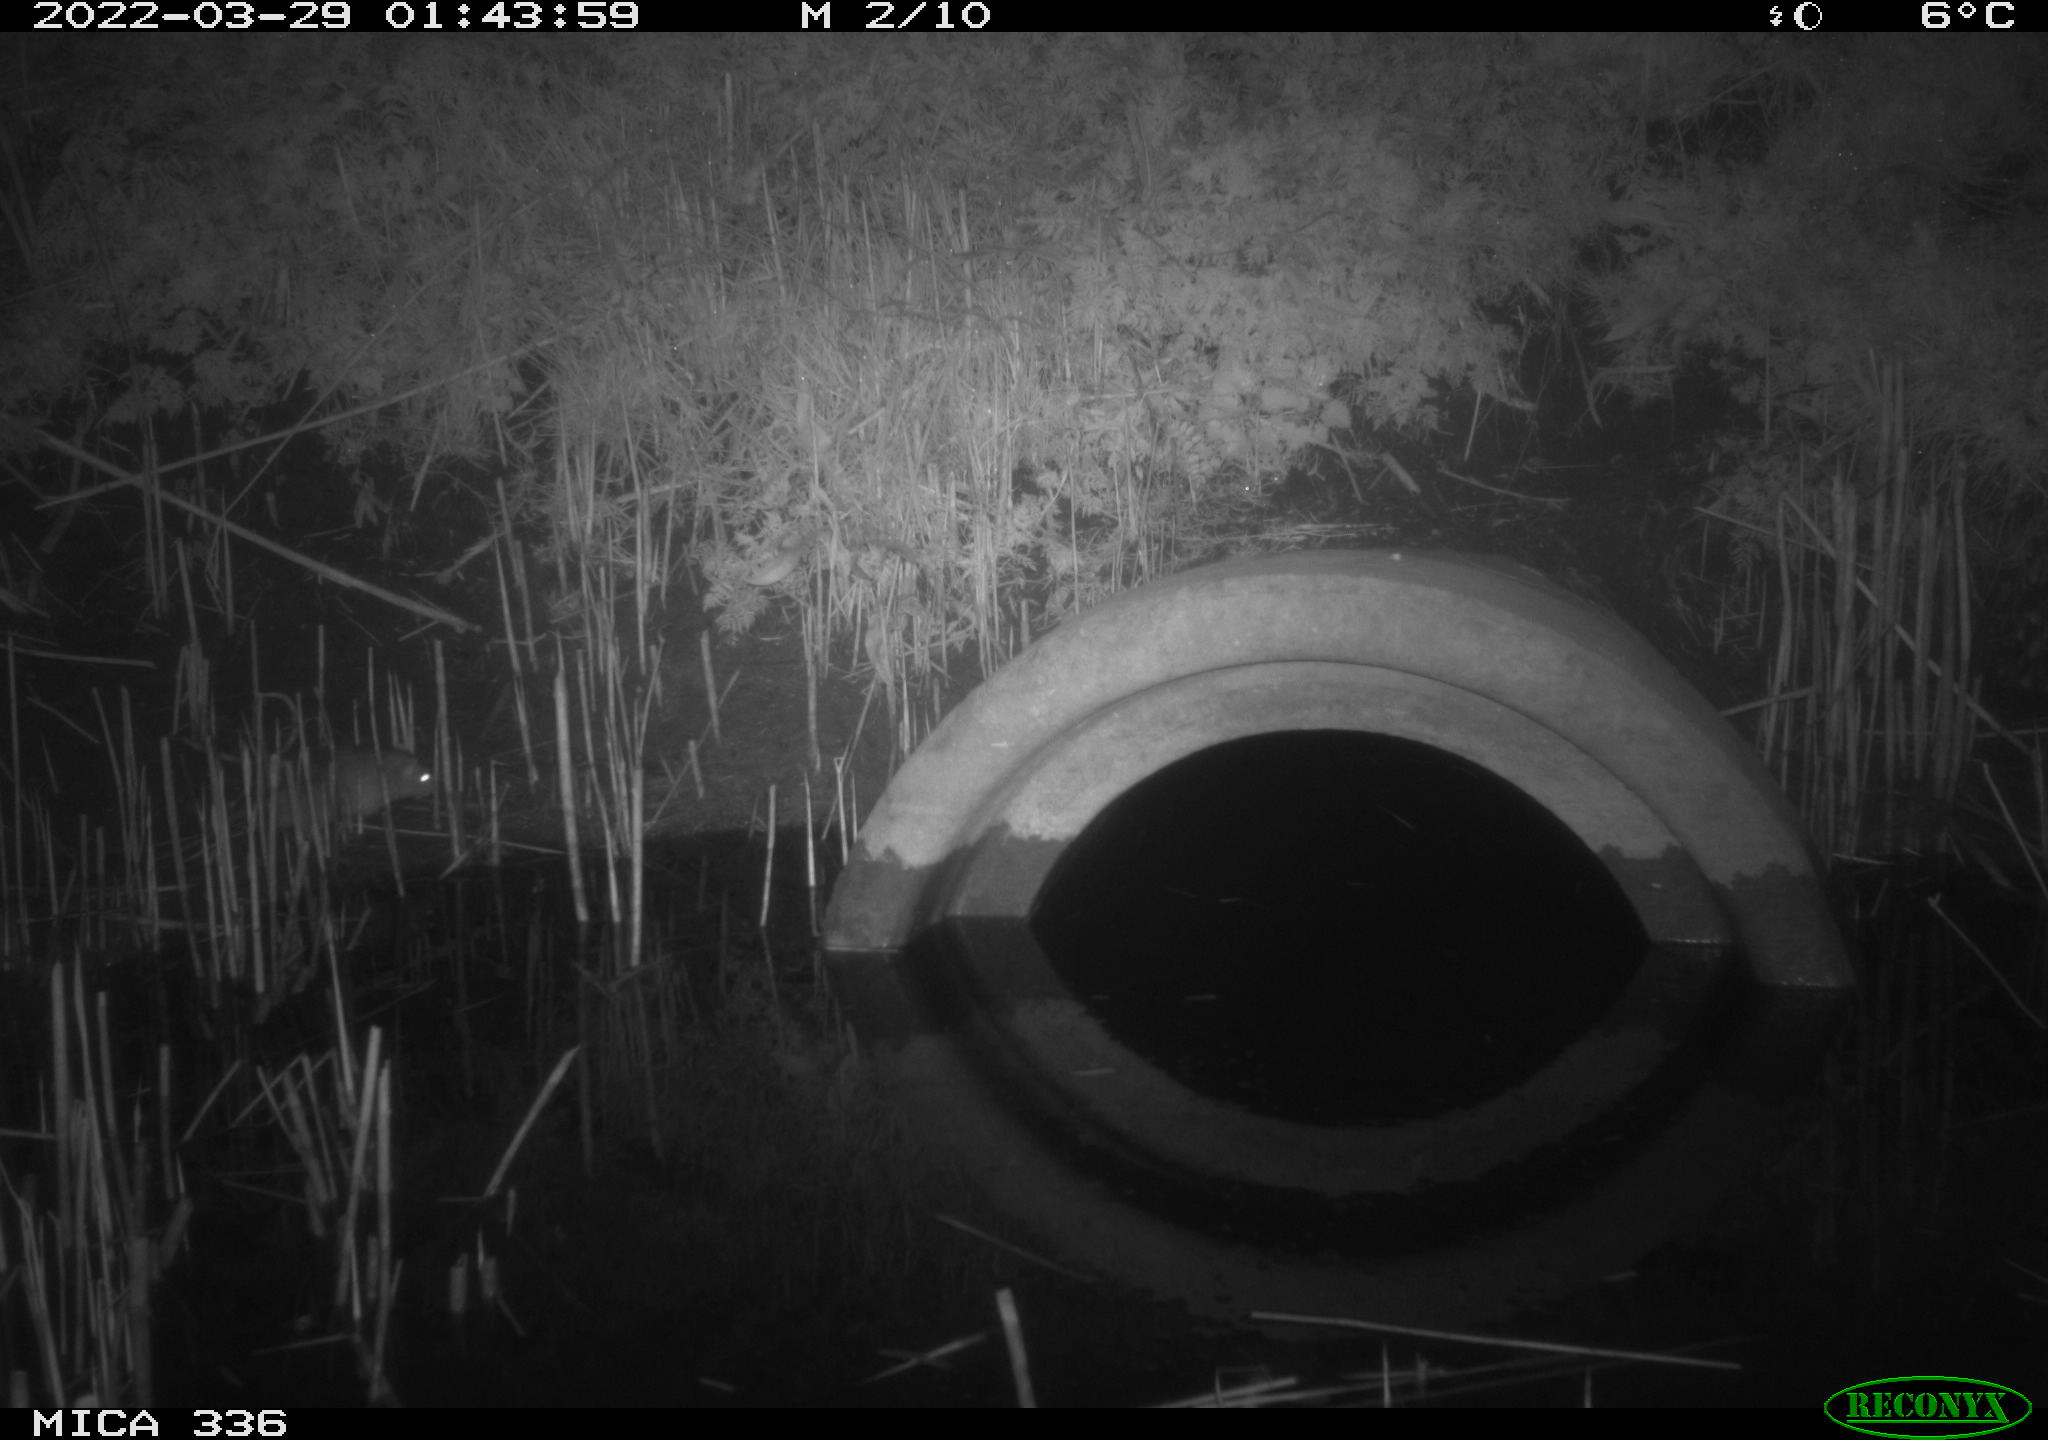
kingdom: Animalia
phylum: Chordata
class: Mammalia
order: Rodentia
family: Muridae
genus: Rattus
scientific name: Rattus norvegicus
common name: Brown rat
